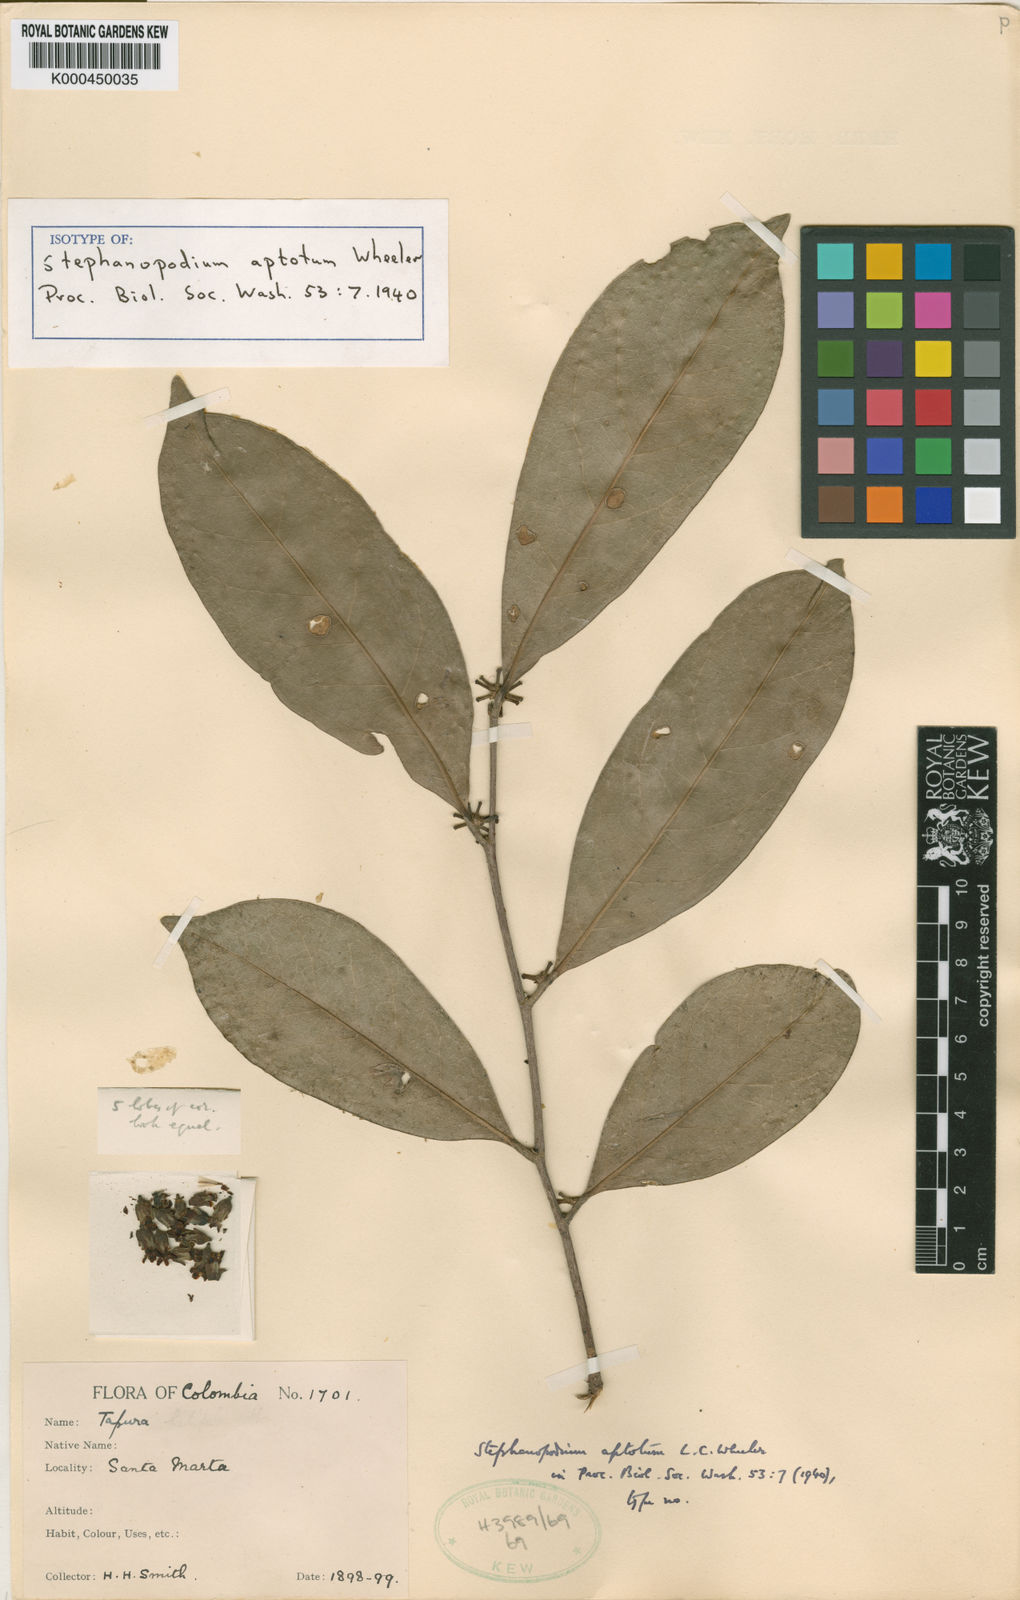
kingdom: Plantae
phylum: Tracheophyta
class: Magnoliopsida
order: Malpighiales
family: Dichapetalaceae
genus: Stephanopodium
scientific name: Stephanopodium aptotum
